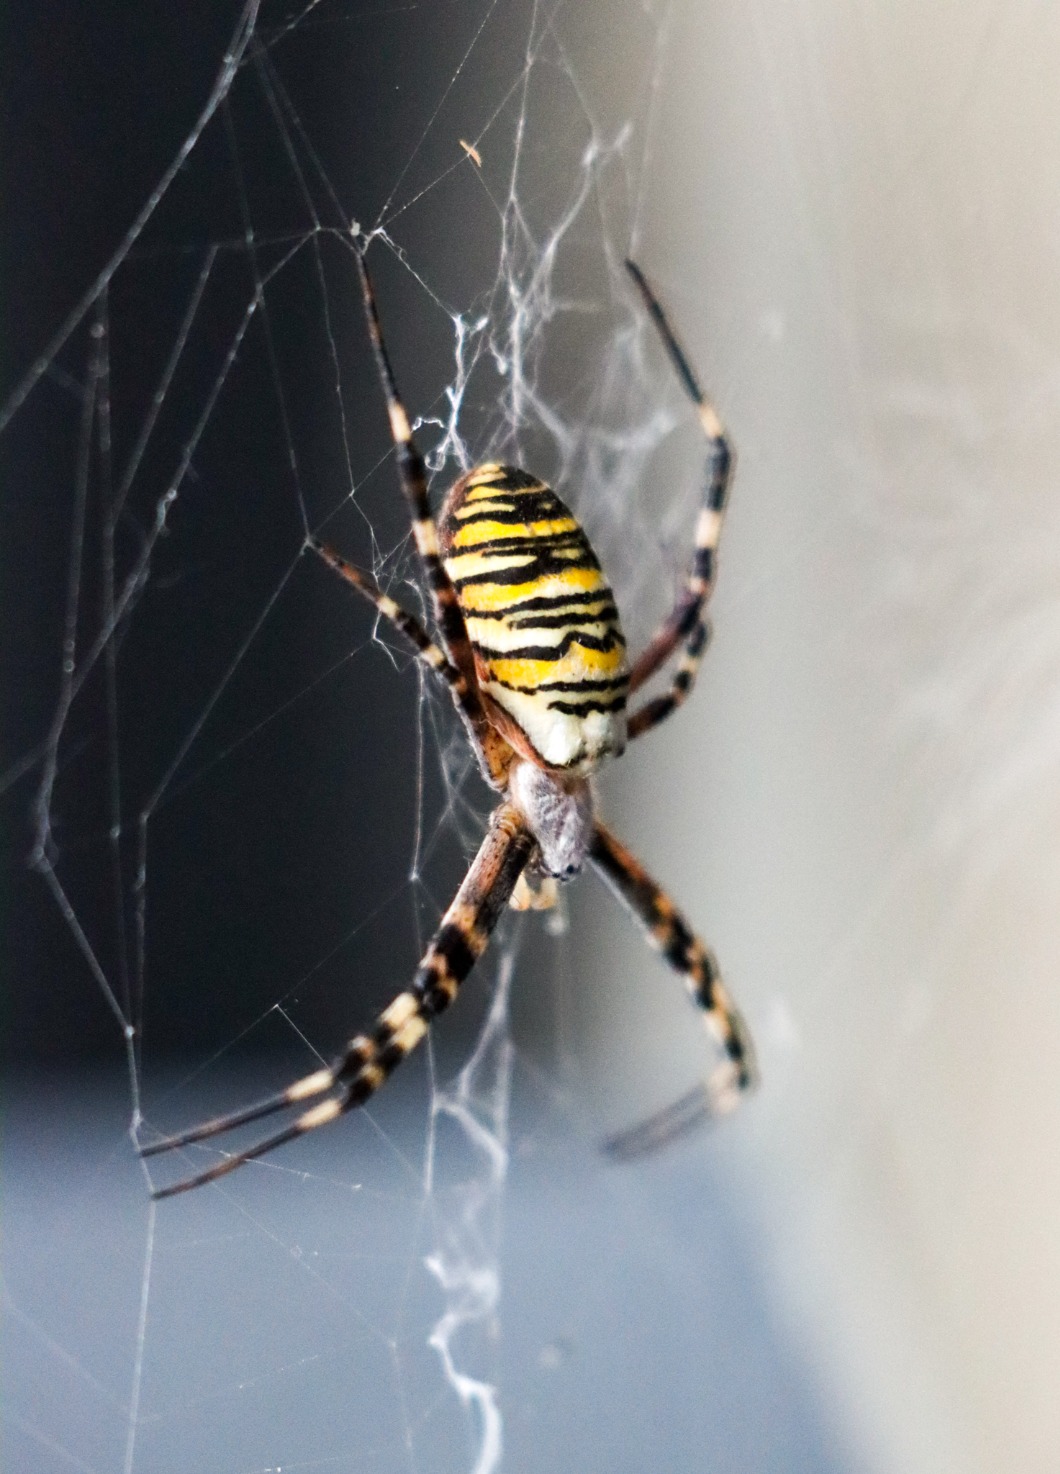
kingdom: Animalia
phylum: Arthropoda
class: Arachnida
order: Araneae
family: Araneidae
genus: Argiope
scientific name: Argiope bruennichi
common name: Hvepseedderkop
